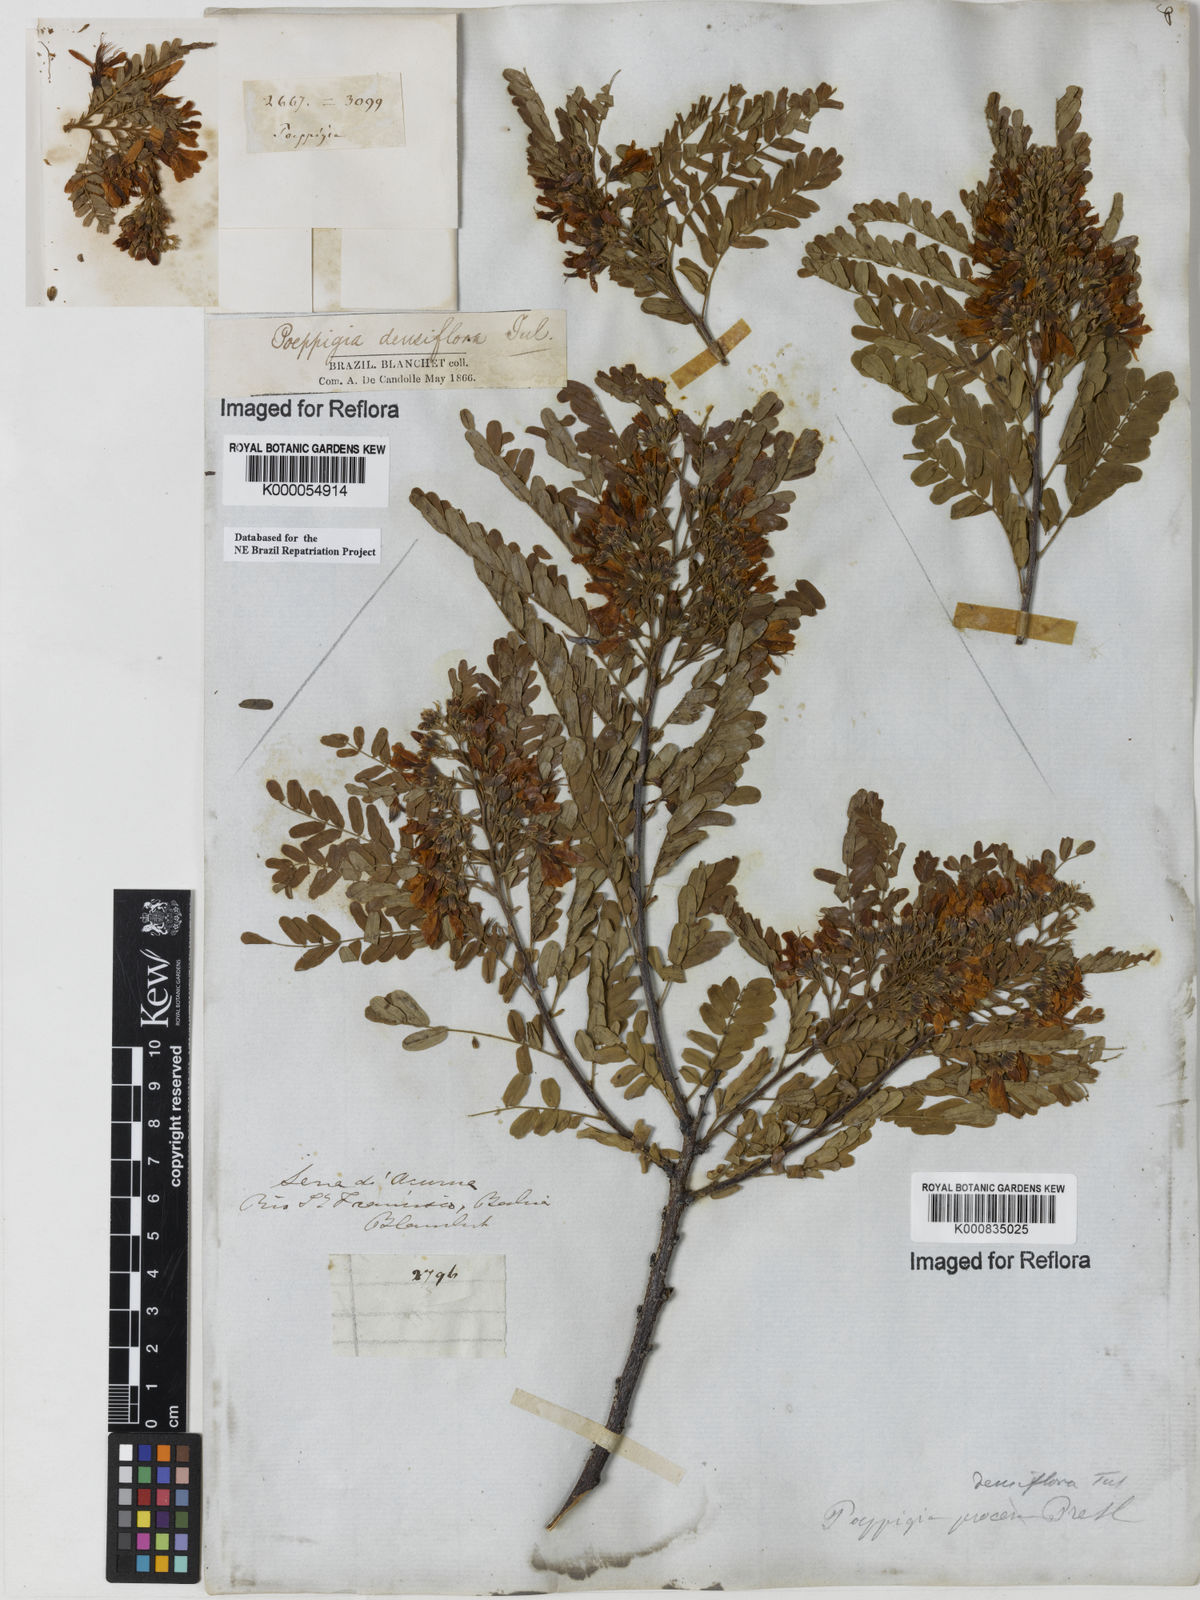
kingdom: Plantae
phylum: Tracheophyta
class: Magnoliopsida
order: Fabales
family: Fabaceae
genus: Poeppigia
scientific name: Poeppigia procera
